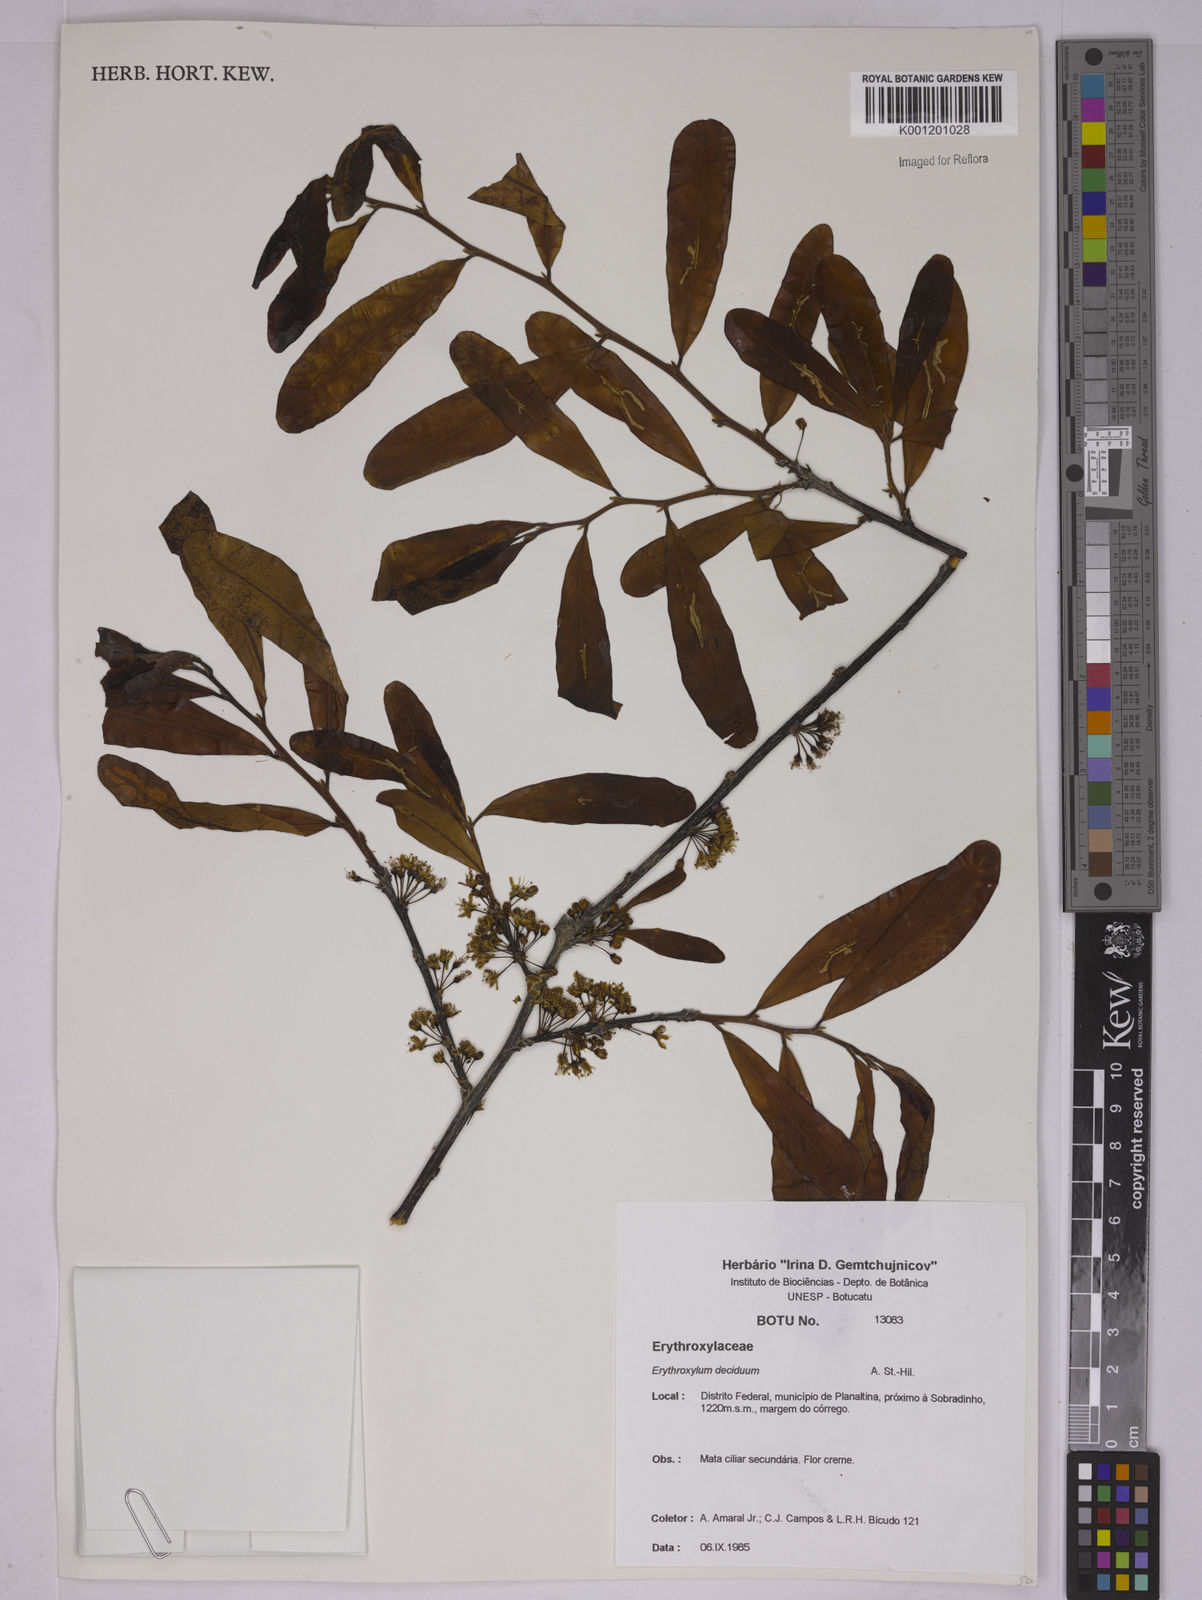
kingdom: Plantae
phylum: Tracheophyta
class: Magnoliopsida
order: Malpighiales
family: Erythroxylaceae
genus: Erythroxylum
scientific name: Erythroxylum deciduum
